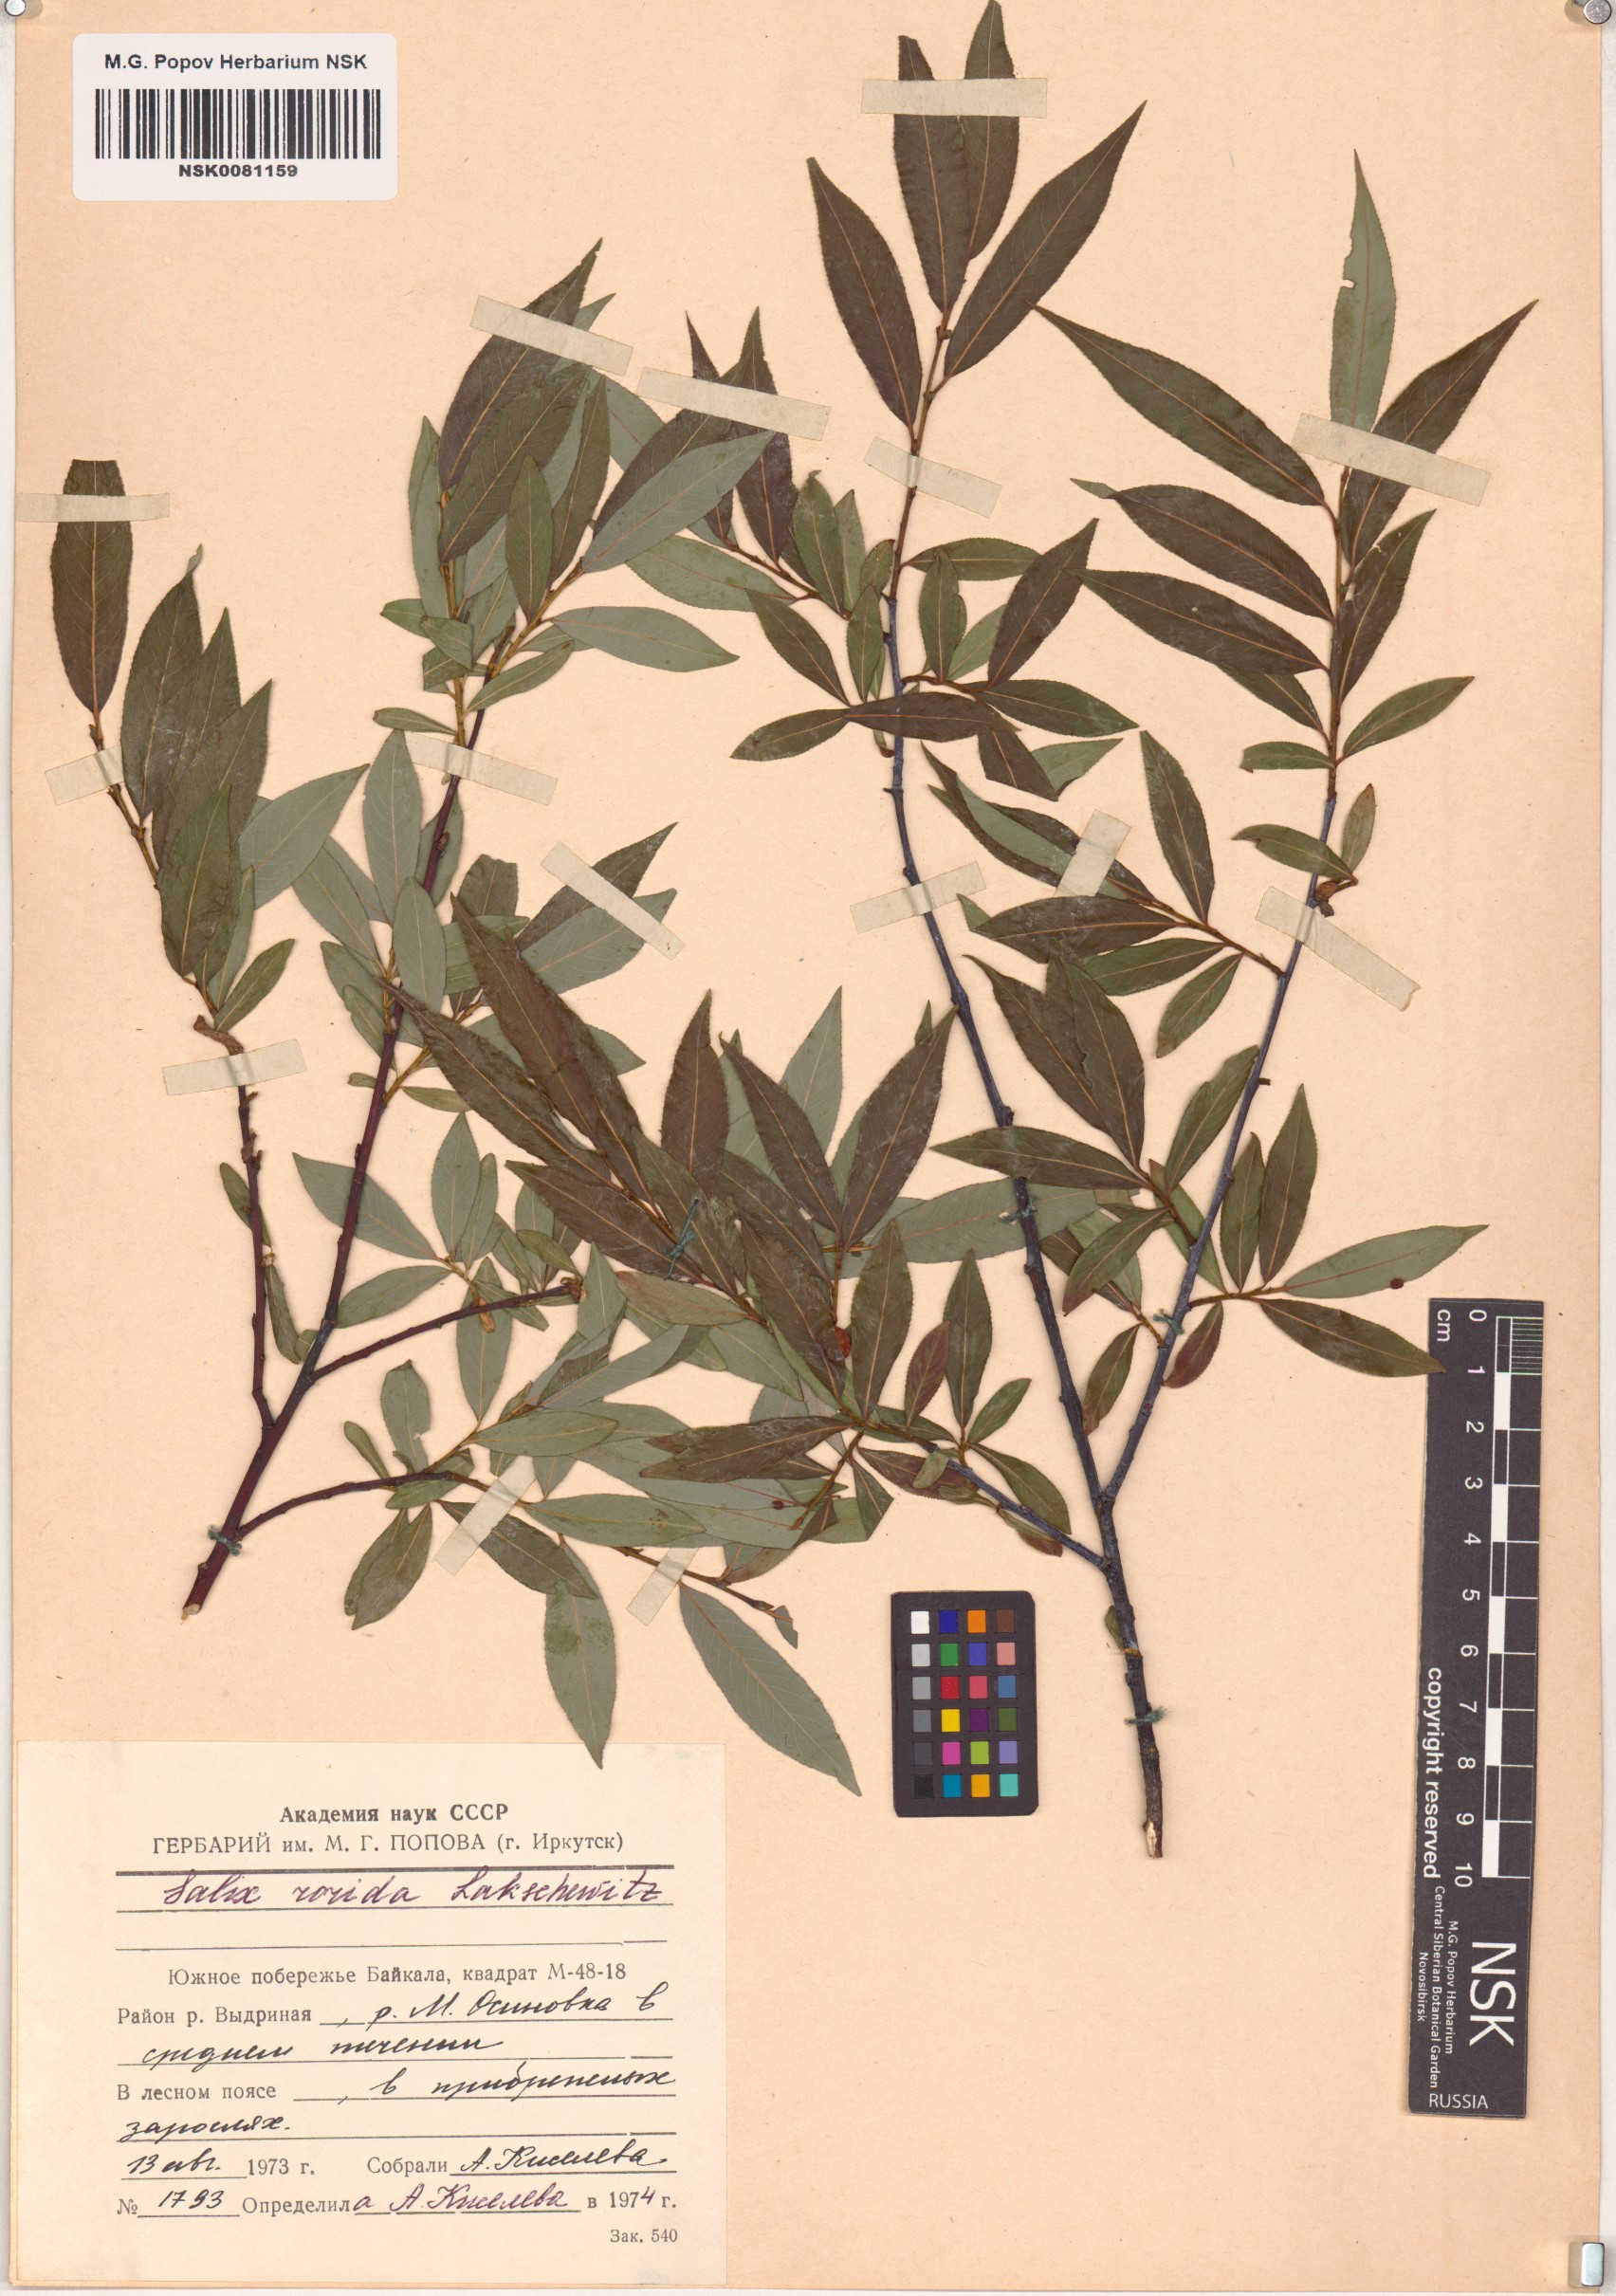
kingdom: Plantae
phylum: Tracheophyta
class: Magnoliopsida
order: Malpighiales
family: Salicaceae
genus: Salix
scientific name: Salix rorida
